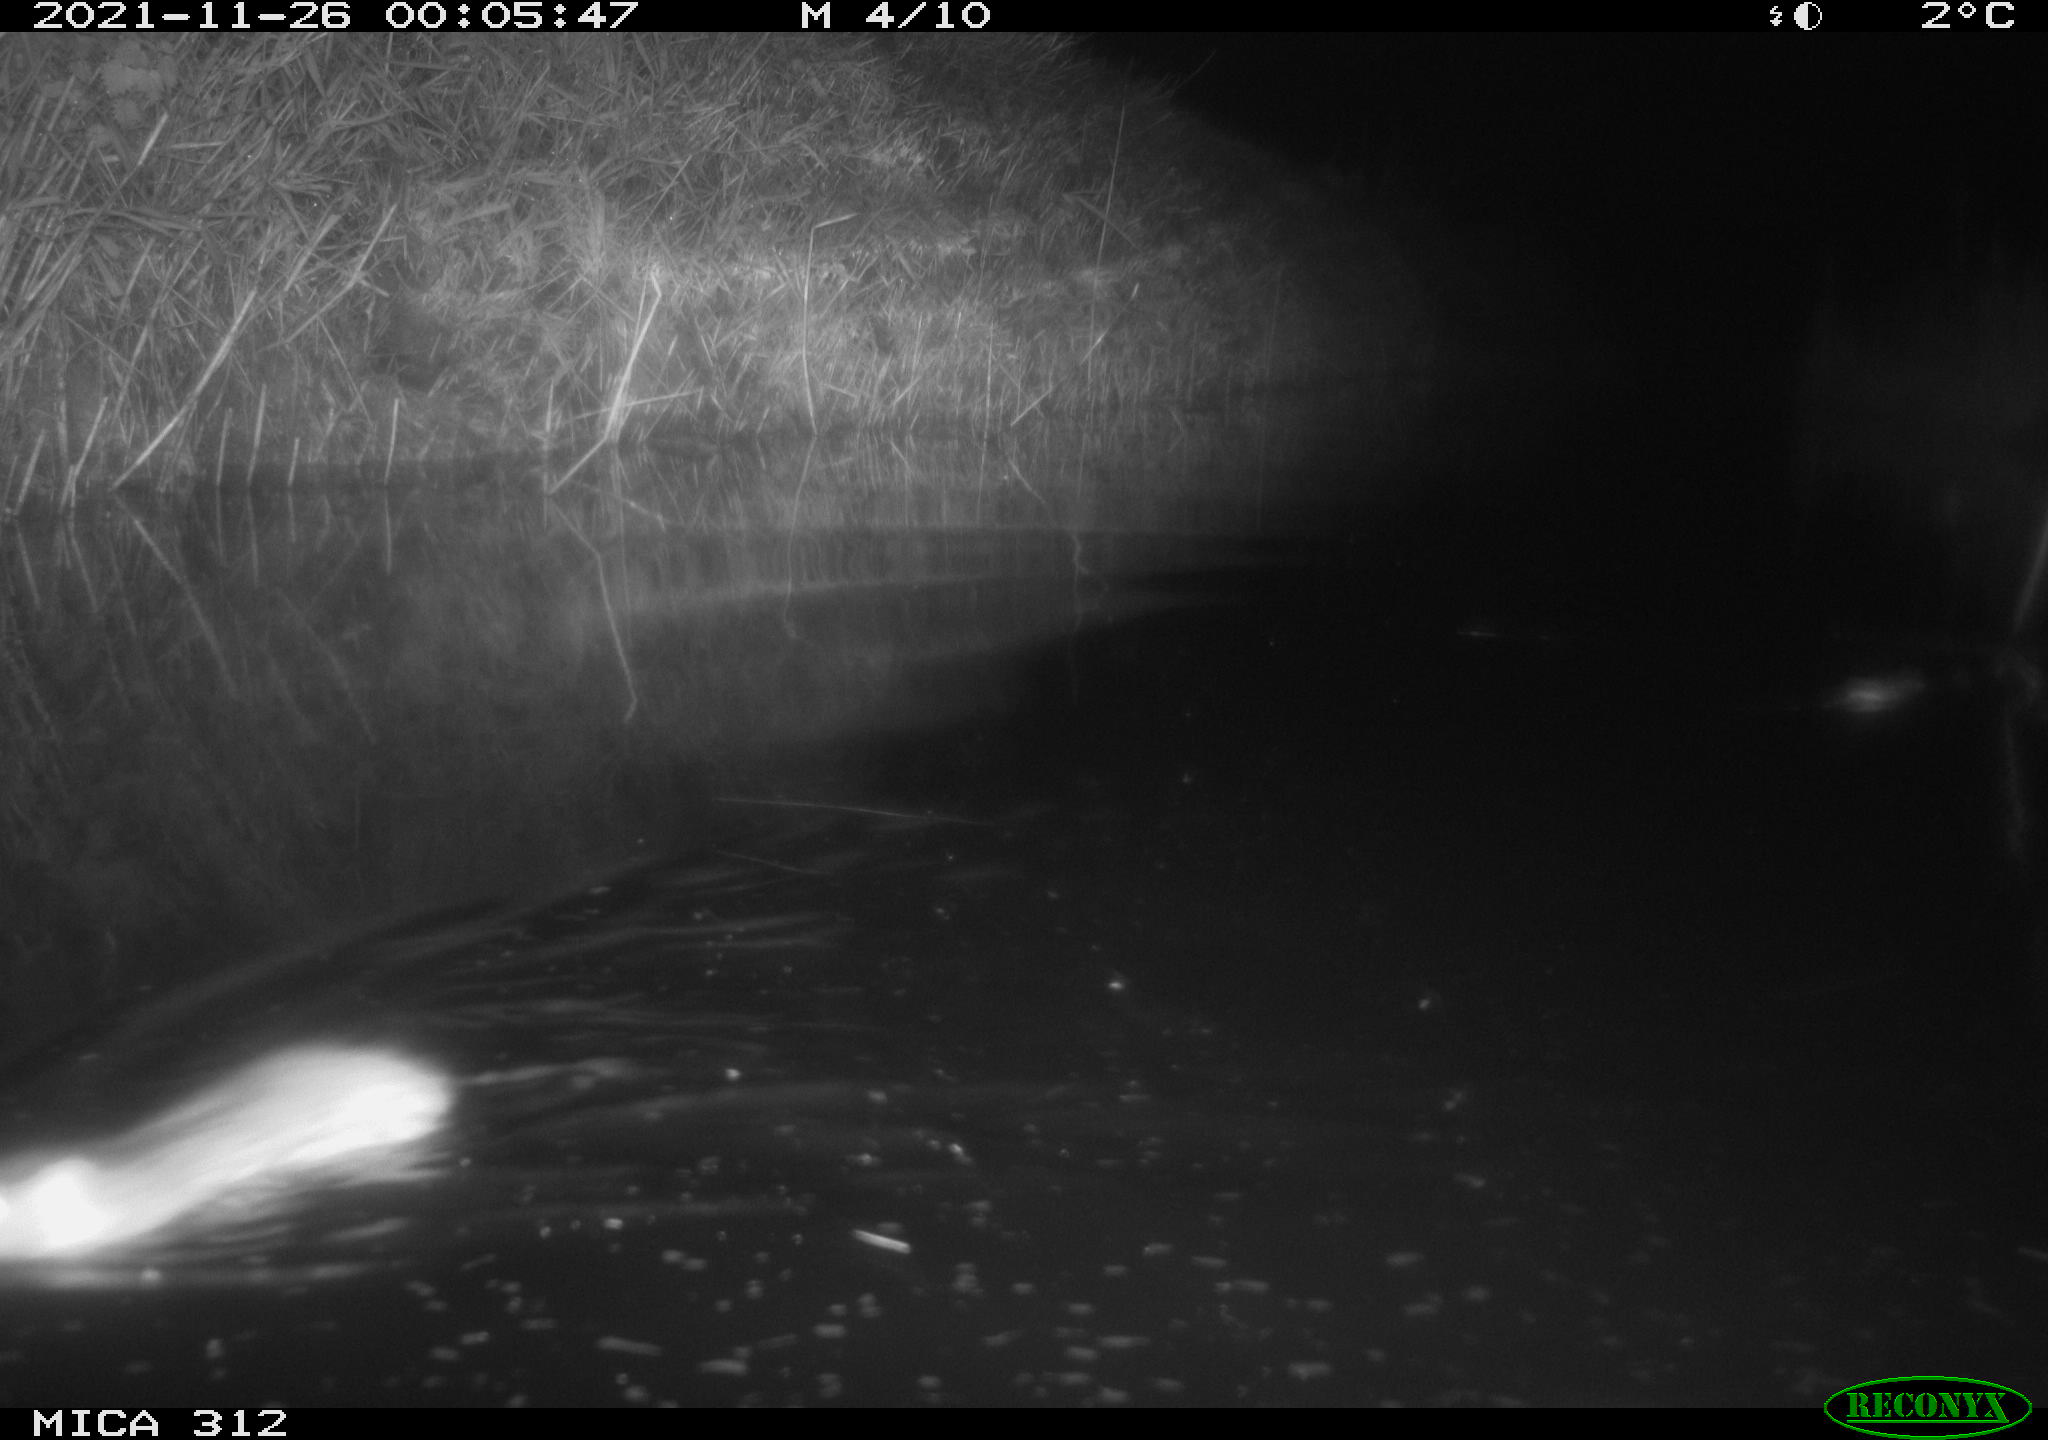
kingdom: Animalia
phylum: Chordata
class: Mammalia
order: Rodentia
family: Muridae
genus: Rattus
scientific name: Rattus norvegicus
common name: Brown rat
